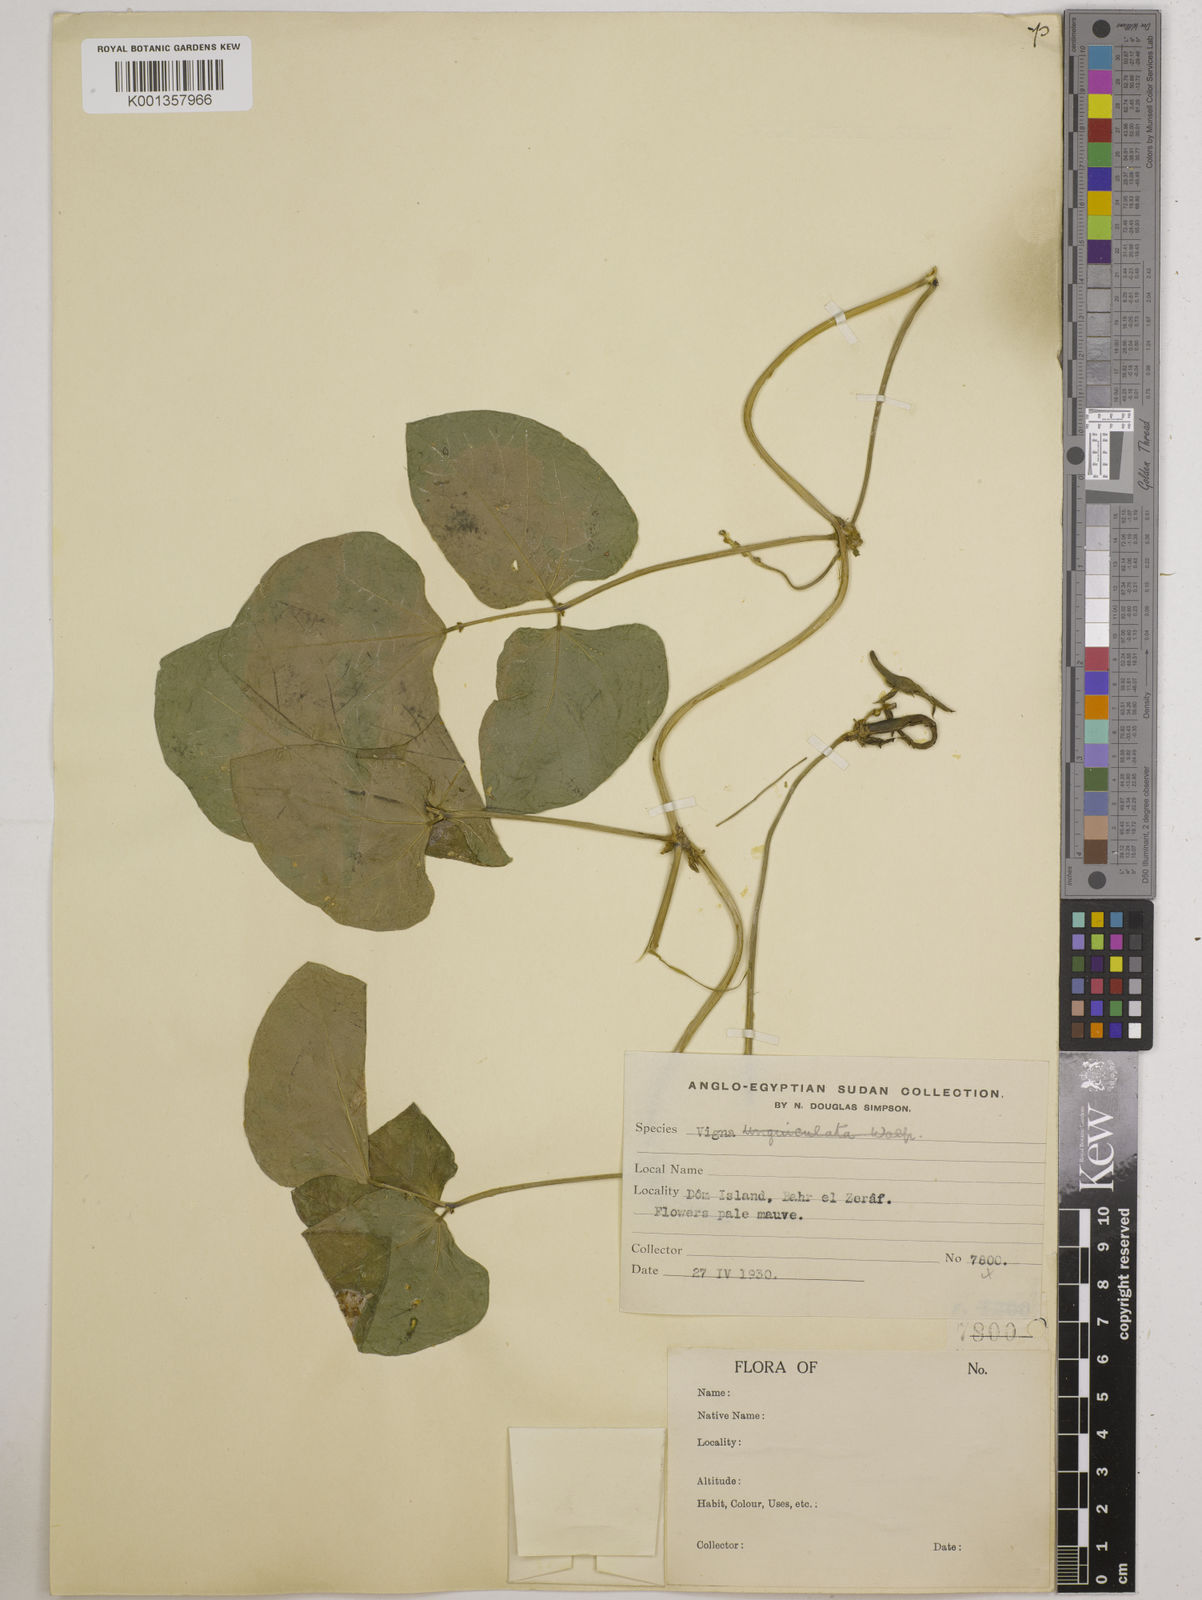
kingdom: Plantae
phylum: Tracheophyta
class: Magnoliopsida
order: Fabales
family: Fabaceae
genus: Vigna
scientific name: Vigna unguiculata
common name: Cowpea
